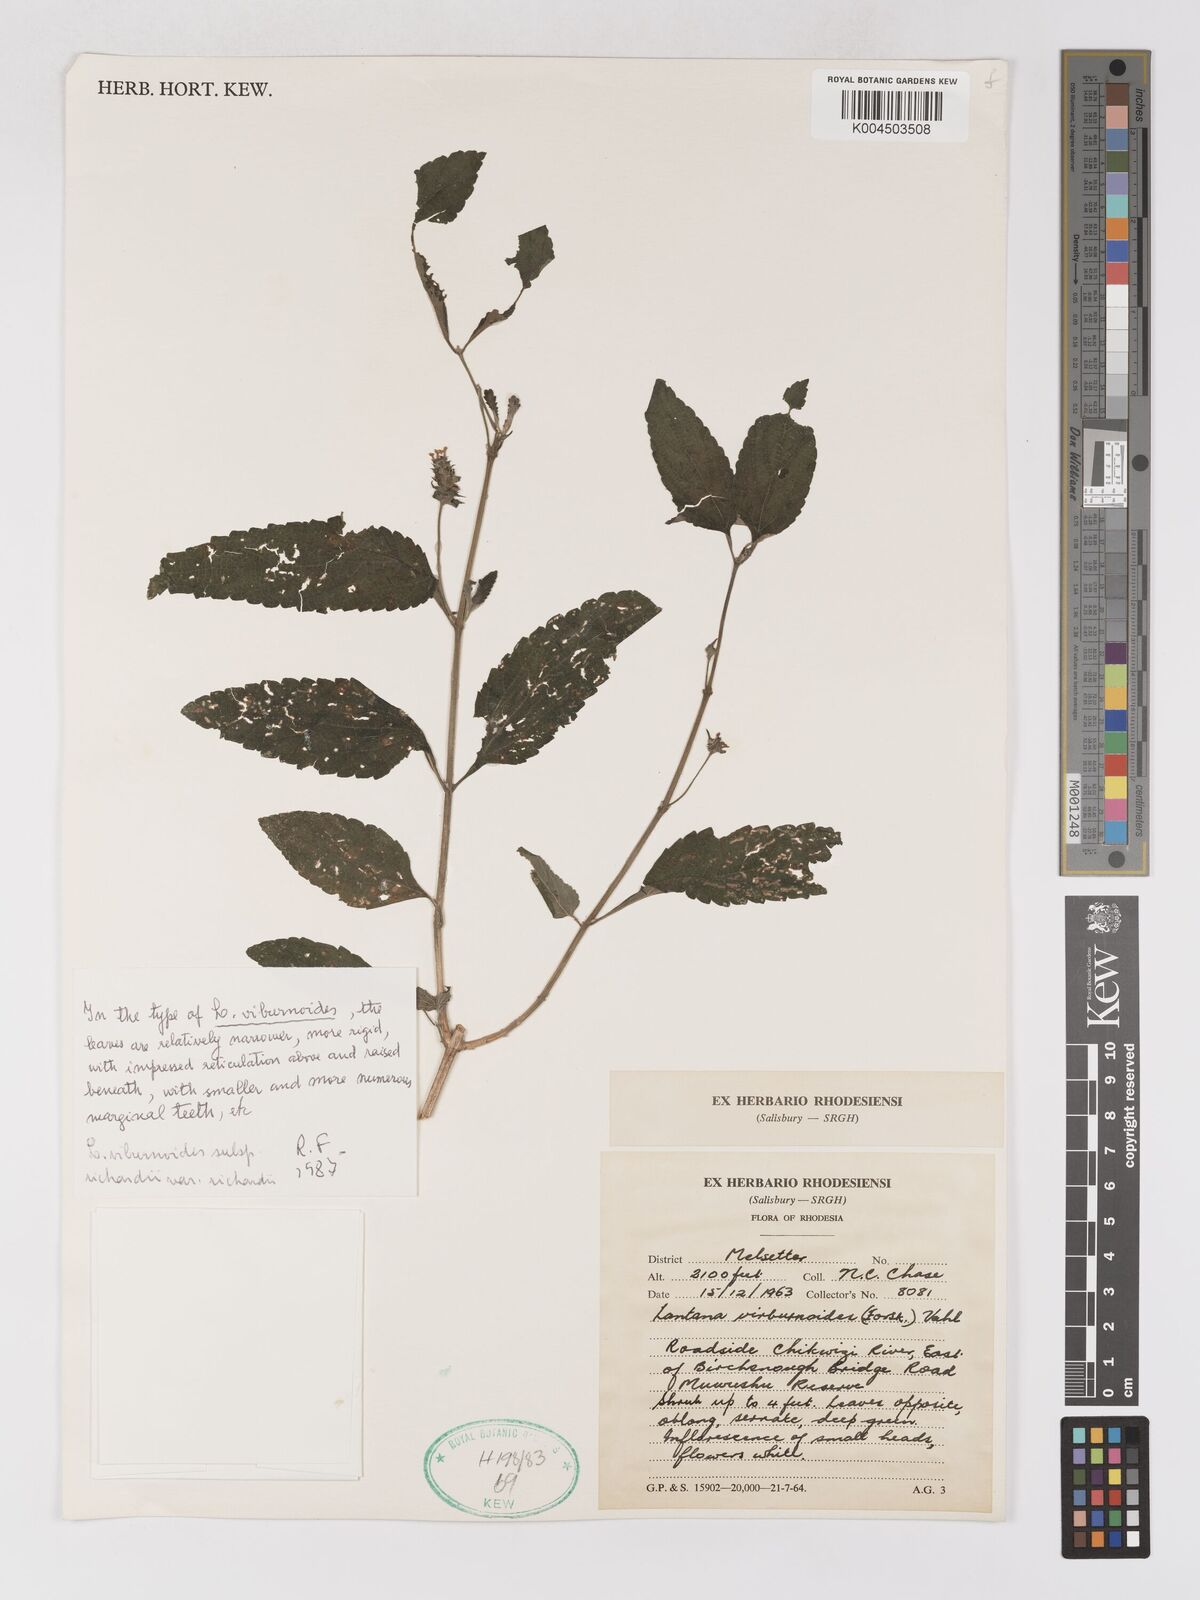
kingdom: Plantae
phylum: Tracheophyta
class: Magnoliopsida
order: Lamiales
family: Verbenaceae
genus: Lantana
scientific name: Lantana
